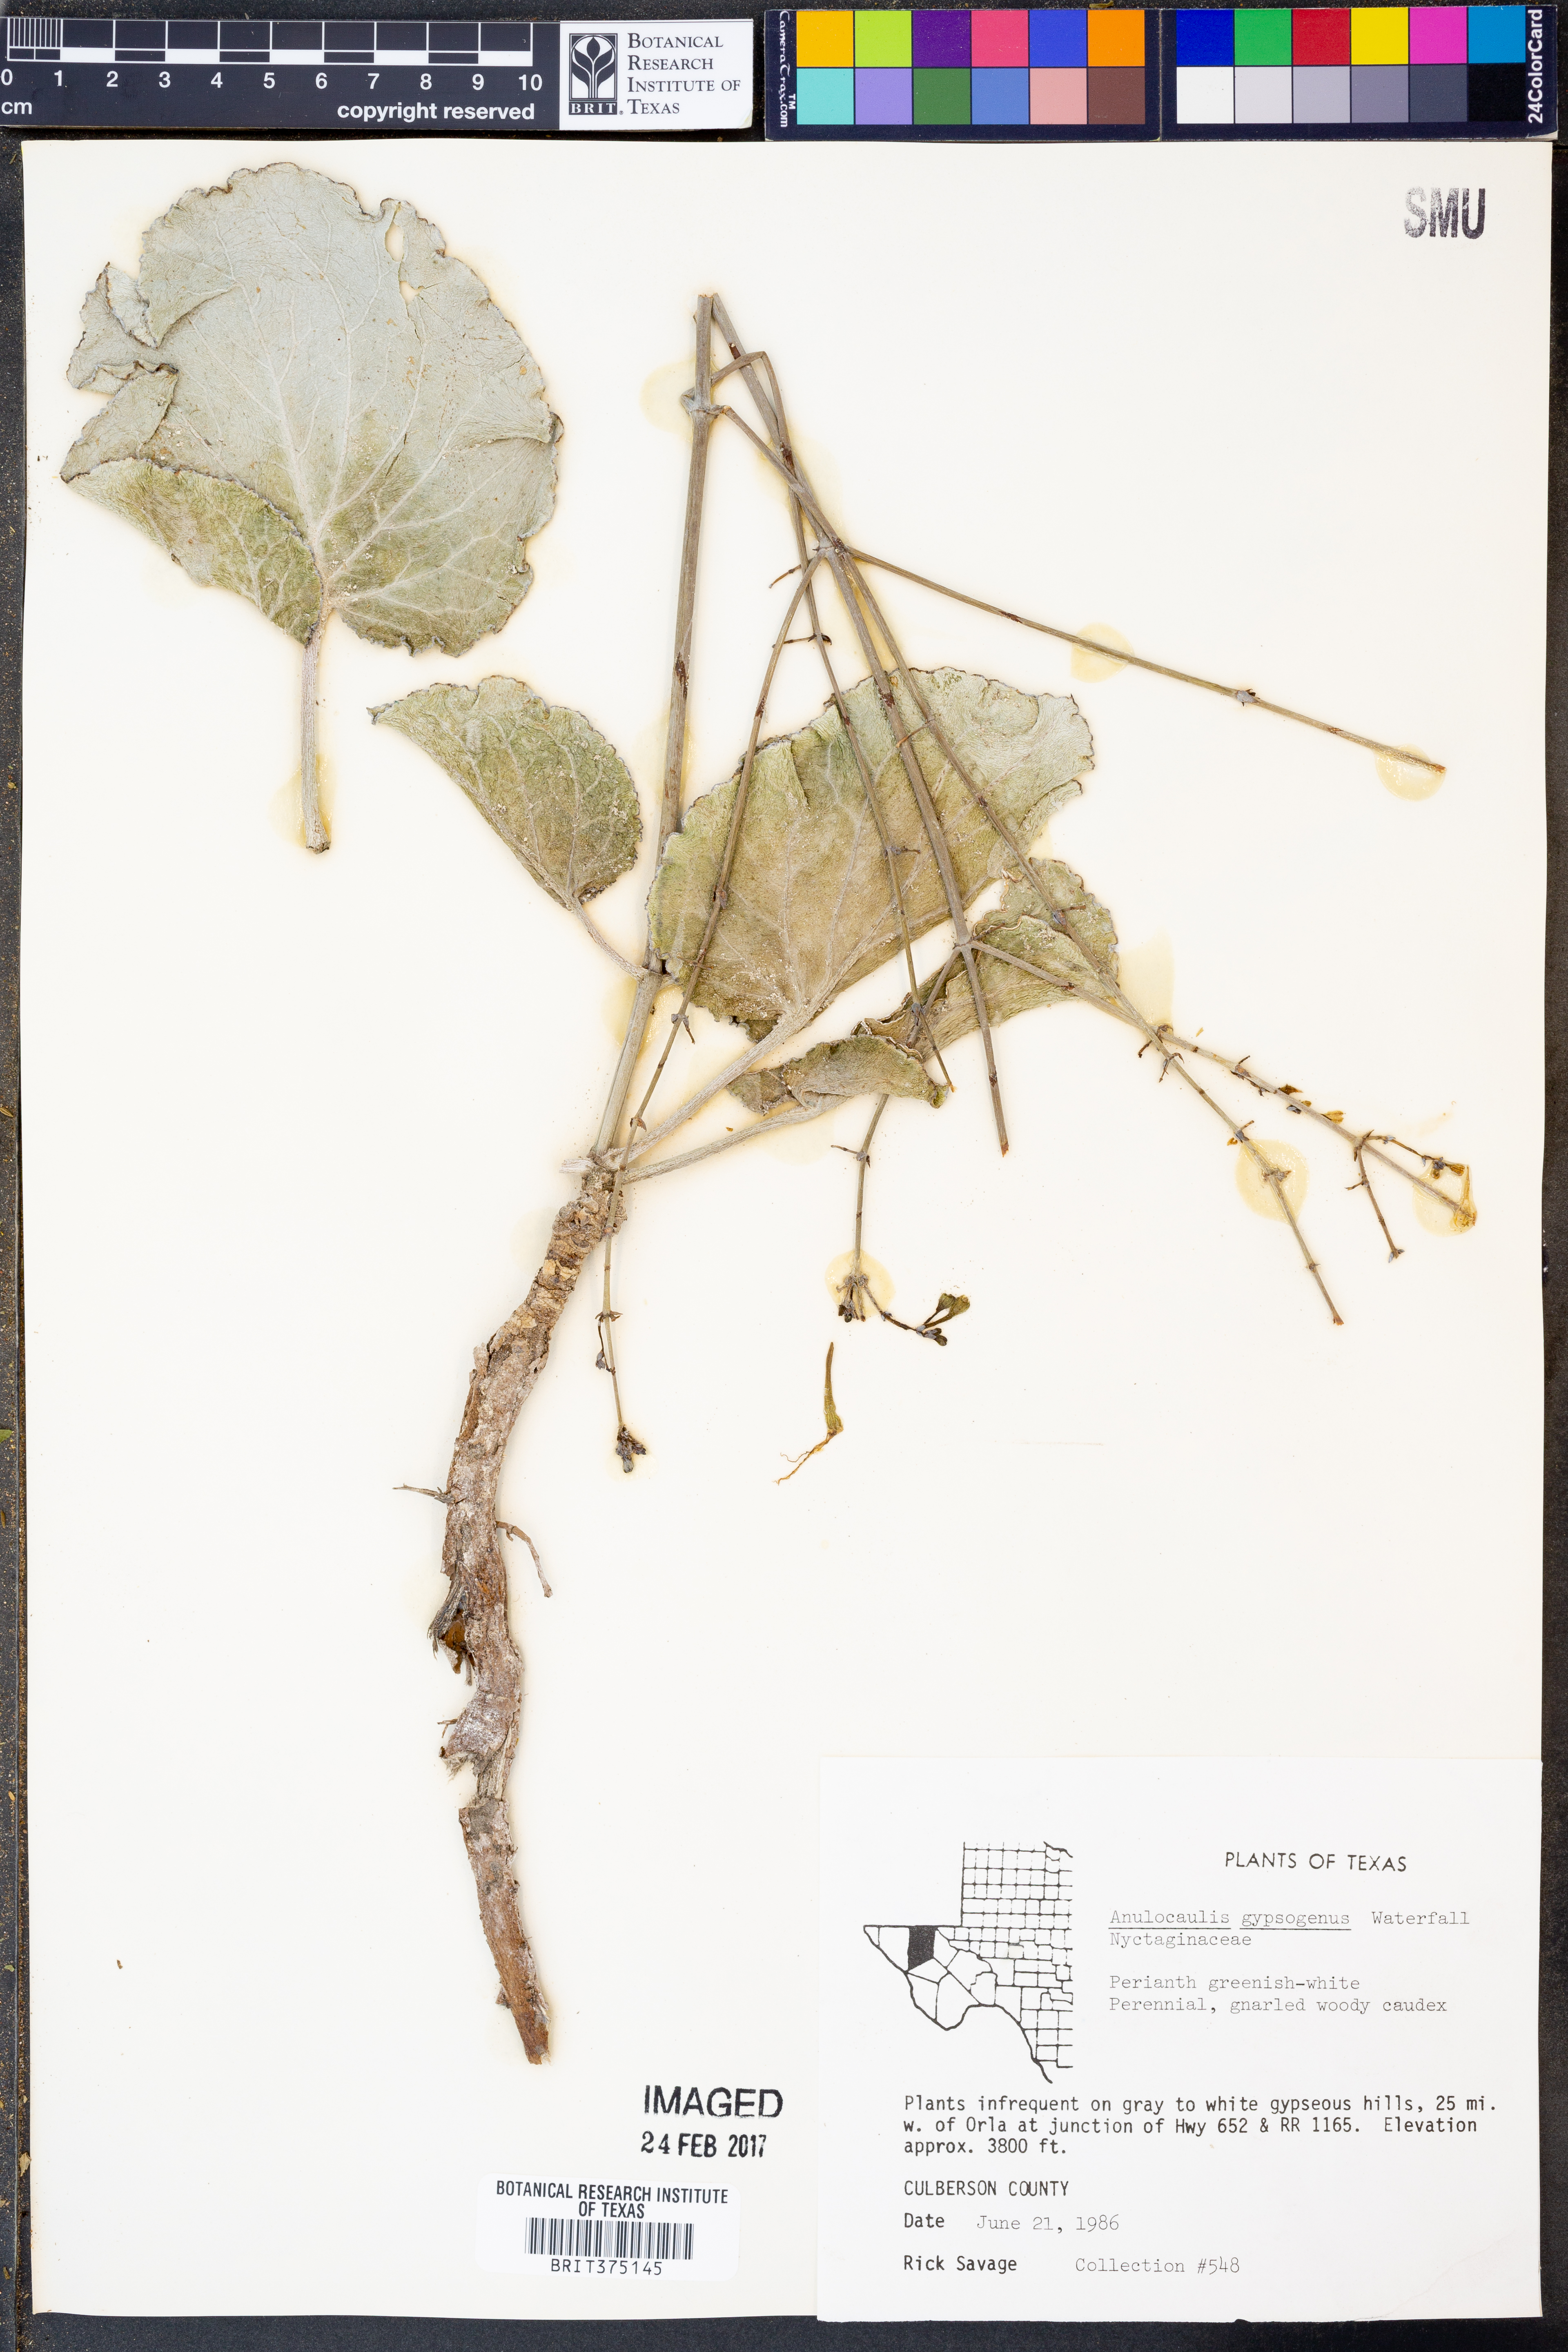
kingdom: Plantae
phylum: Tracheophyta
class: Magnoliopsida
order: Caryophyllales
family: Nyctaginaceae
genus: Anulocaulis
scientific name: Anulocaulis leiosolenus
